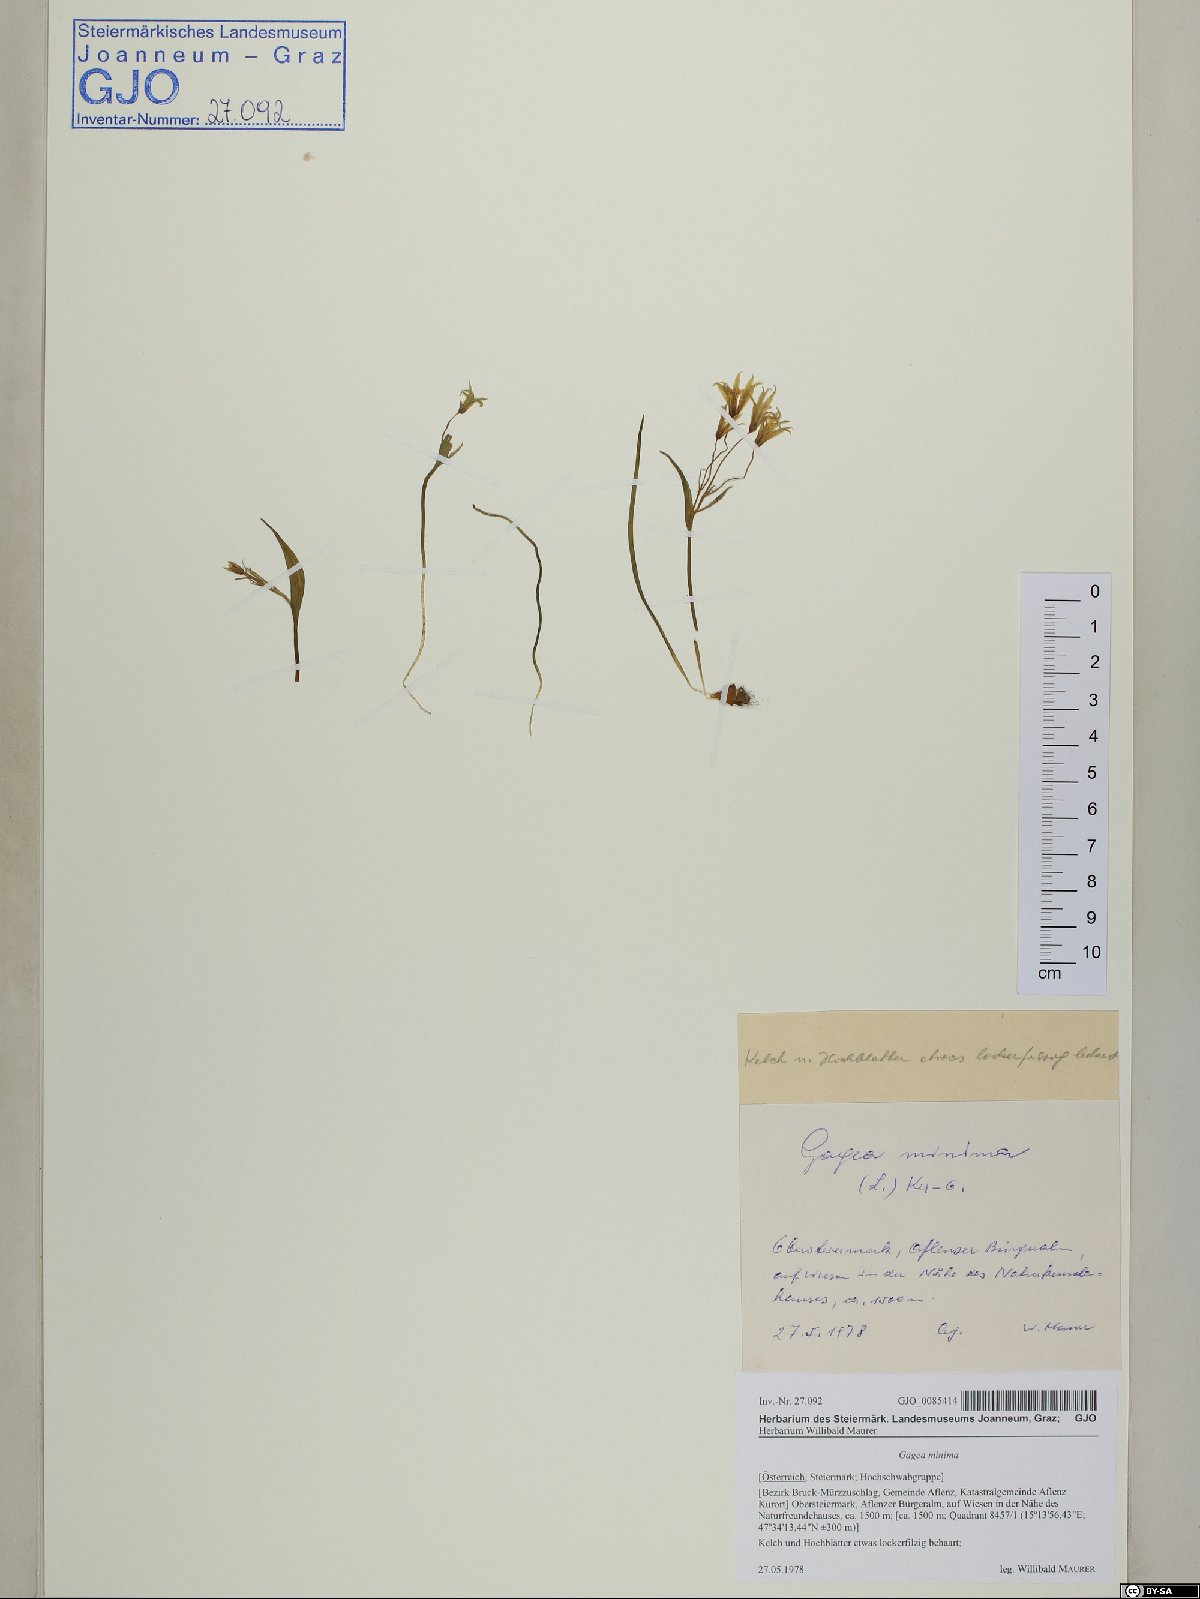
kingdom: Plantae
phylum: Tracheophyta
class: Liliopsida
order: Liliales
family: Liliaceae
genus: Gagea
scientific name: Gagea minima
